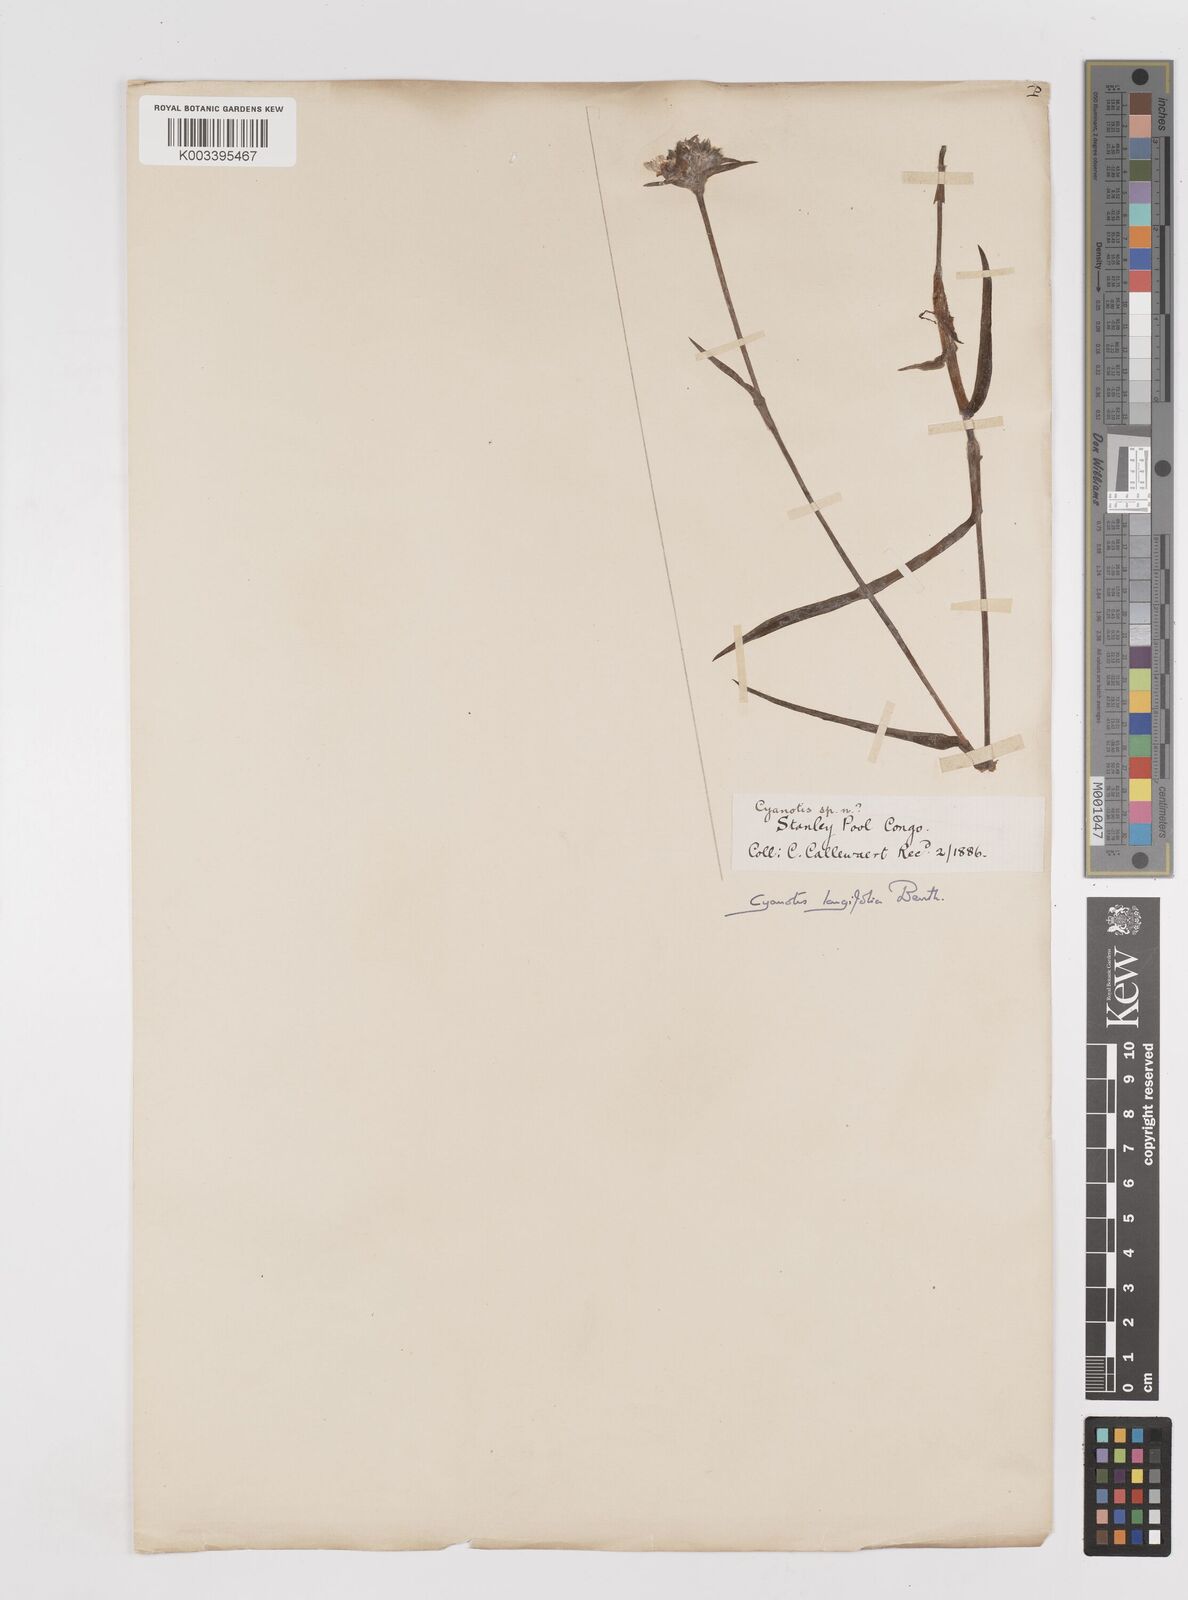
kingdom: Plantae
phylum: Tracheophyta
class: Liliopsida
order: Commelinales
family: Commelinaceae
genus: Cyanotis
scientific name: Cyanotis longifolia
